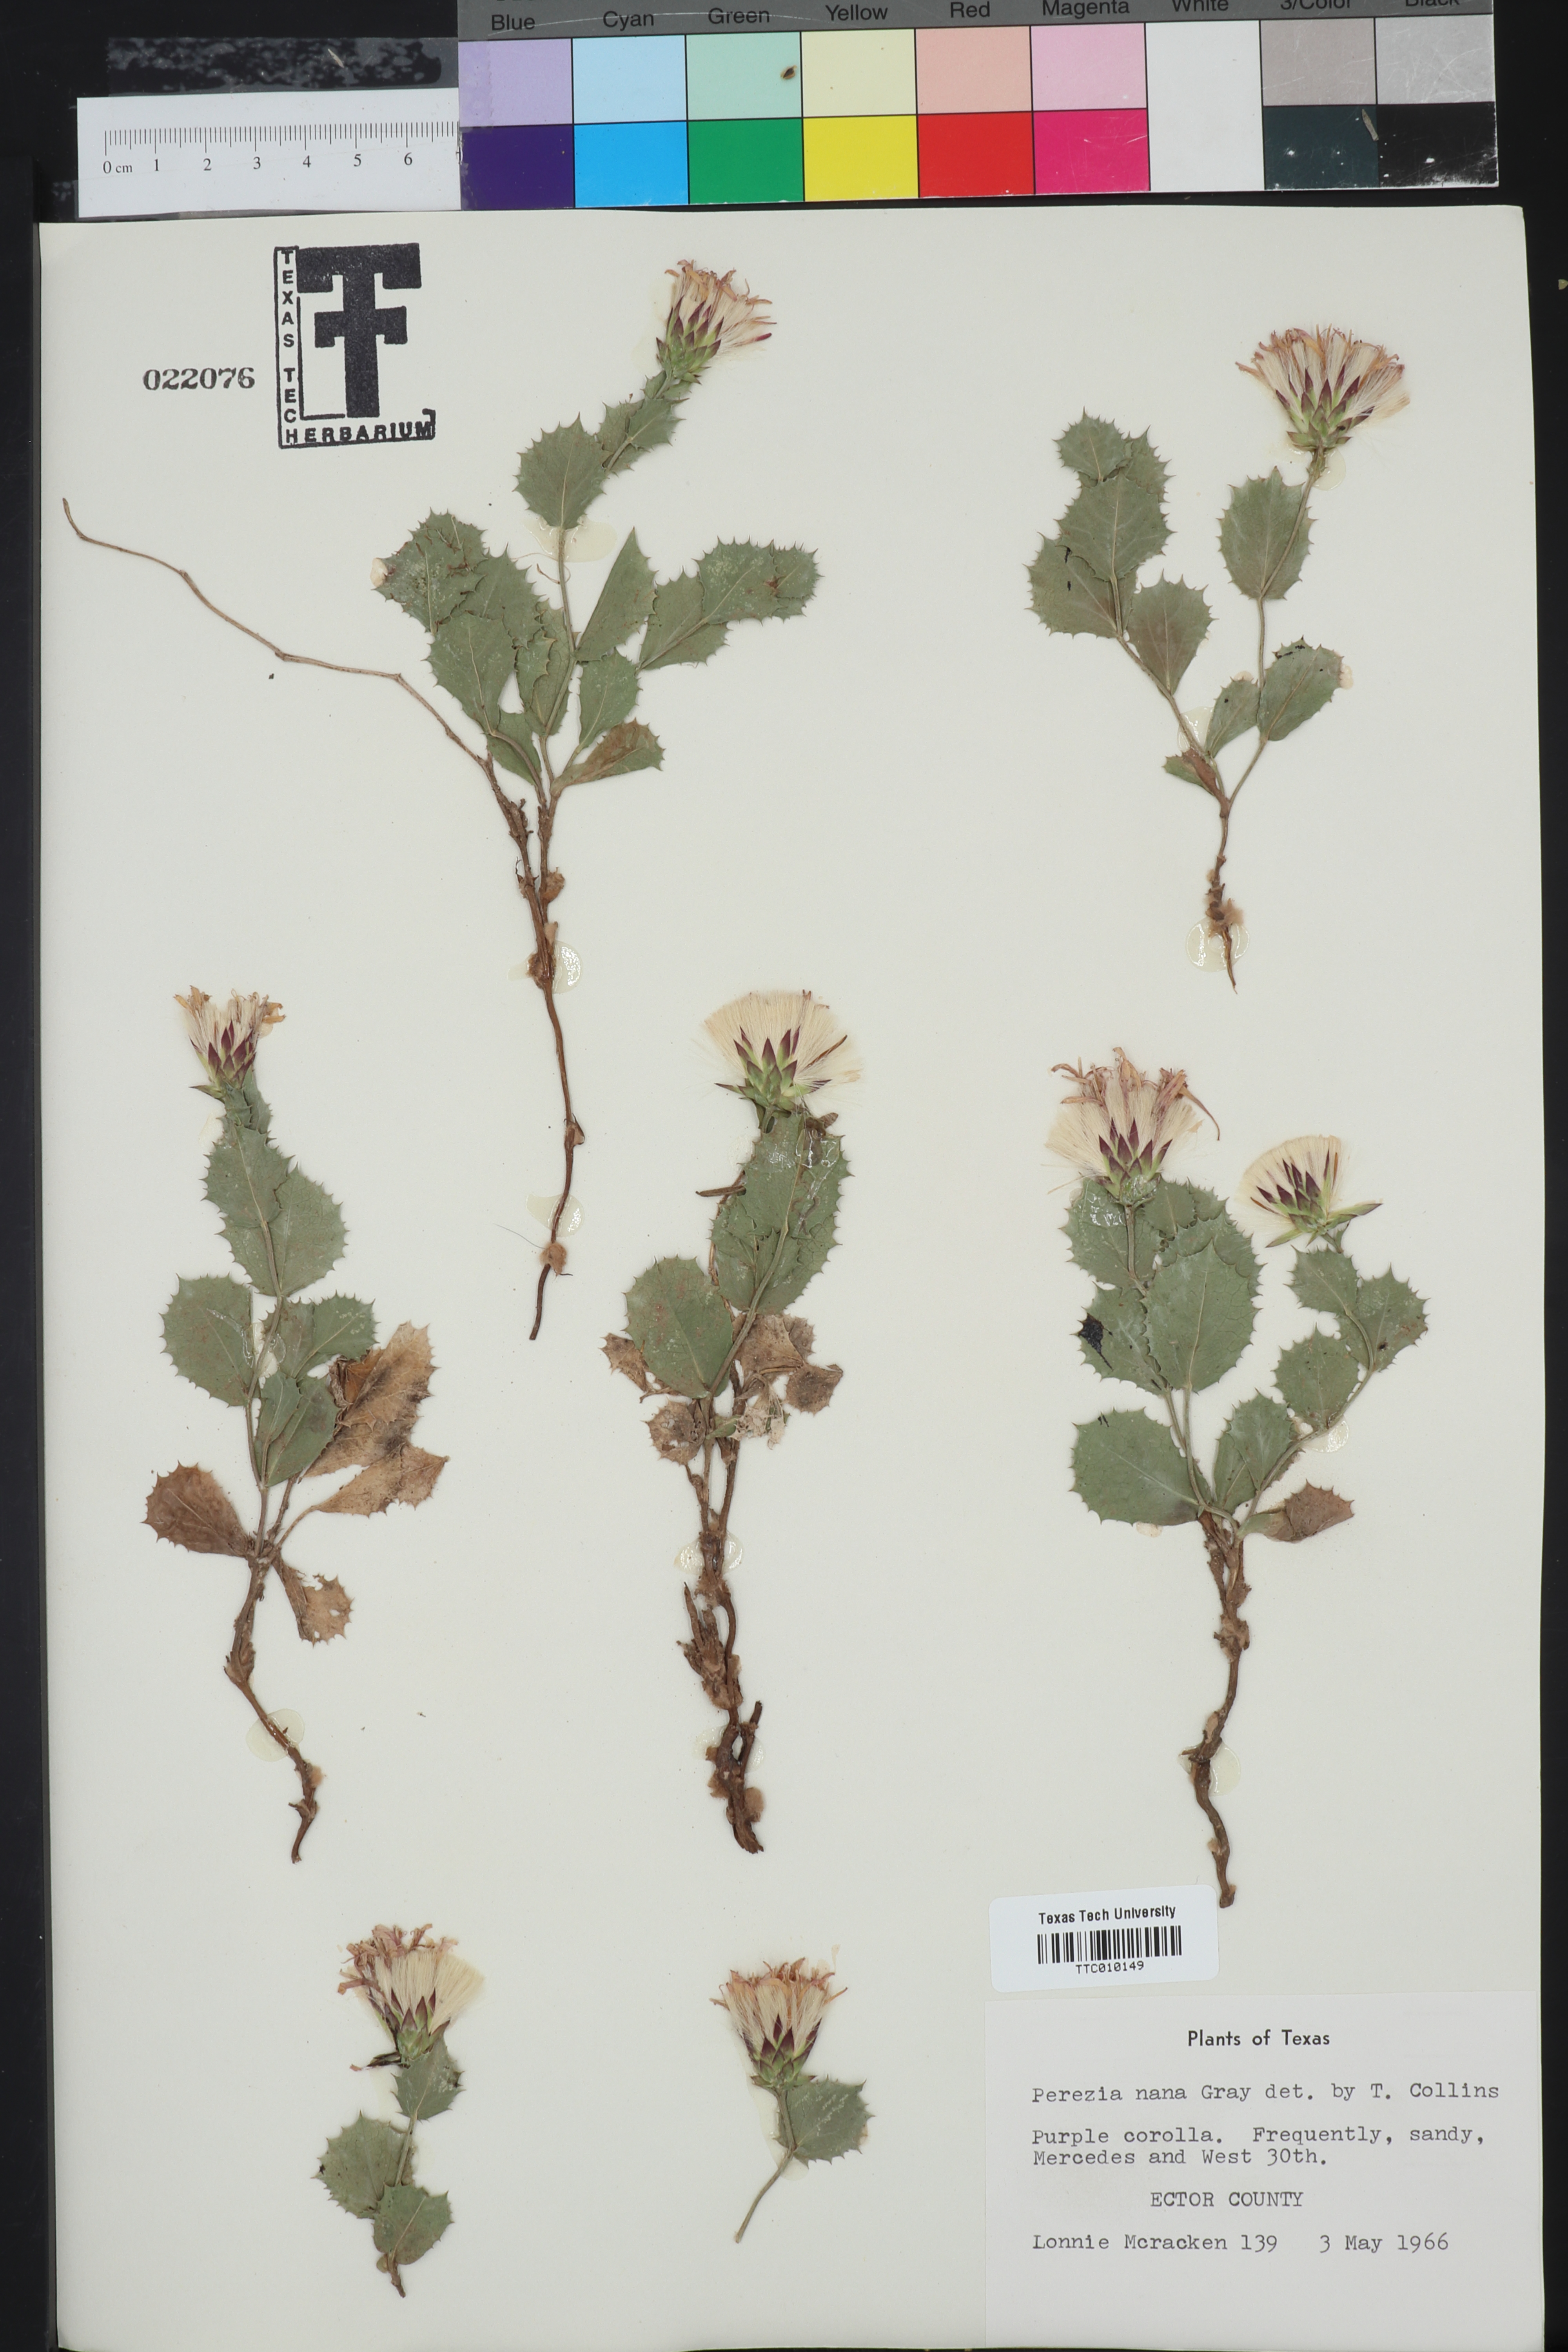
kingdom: Plantae
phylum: Tracheophyta
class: Magnoliopsida
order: Asterales
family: Asteraceae
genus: Acourtia
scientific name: Acourtia nana
